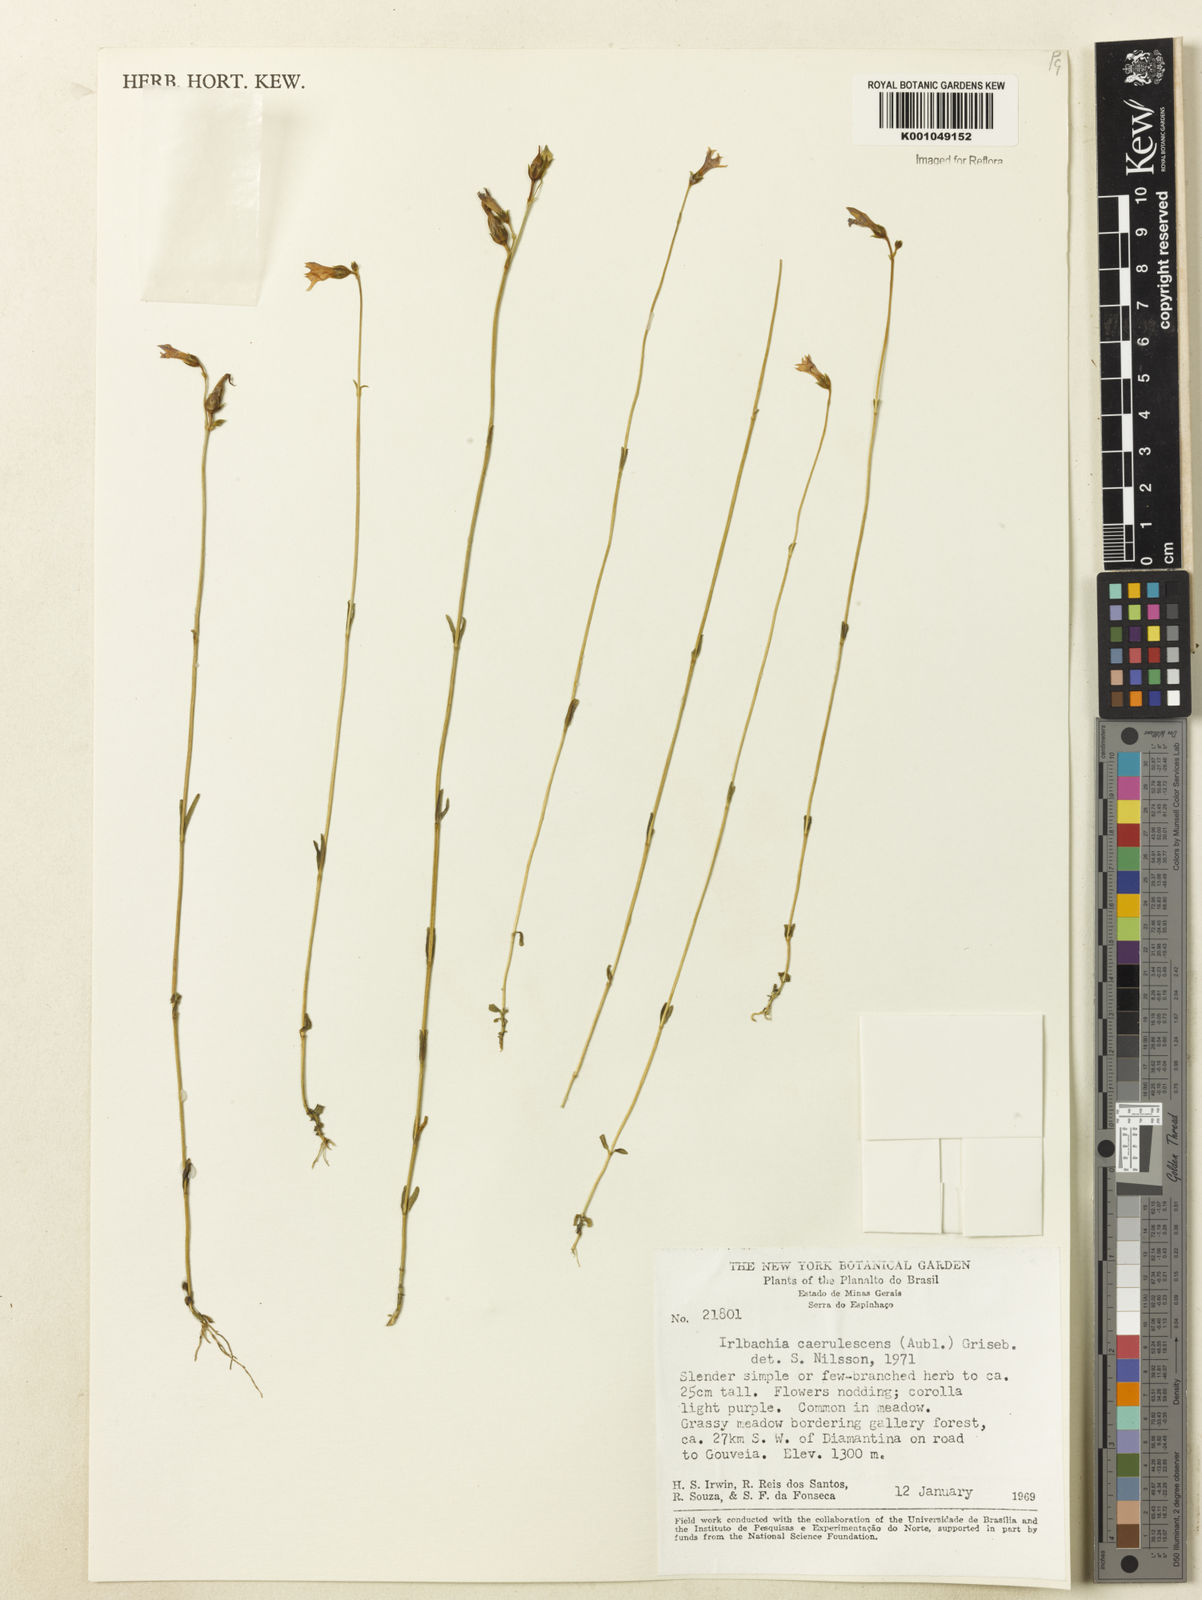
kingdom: Plantae
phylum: Tracheophyta
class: Magnoliopsida
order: Gentianales
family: Gentianaceae
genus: Tetrapollinia
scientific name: Tetrapollinia caerulescens
